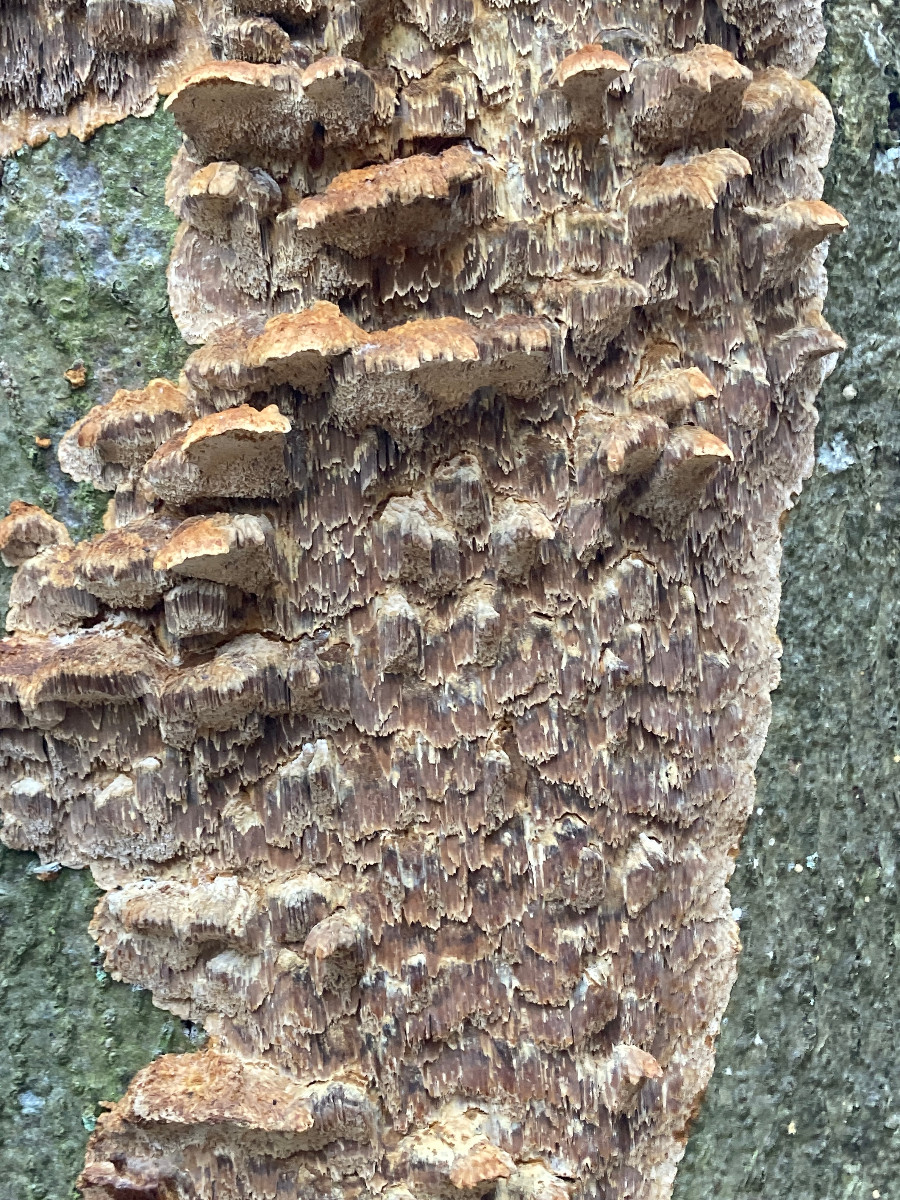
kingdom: Fungi
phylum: Basidiomycota
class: Agaricomycetes
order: Hymenochaetales
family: Hymenochaetaceae
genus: Mensularia
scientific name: Mensularia nodulosa
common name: bøge-spejlporesvamp
